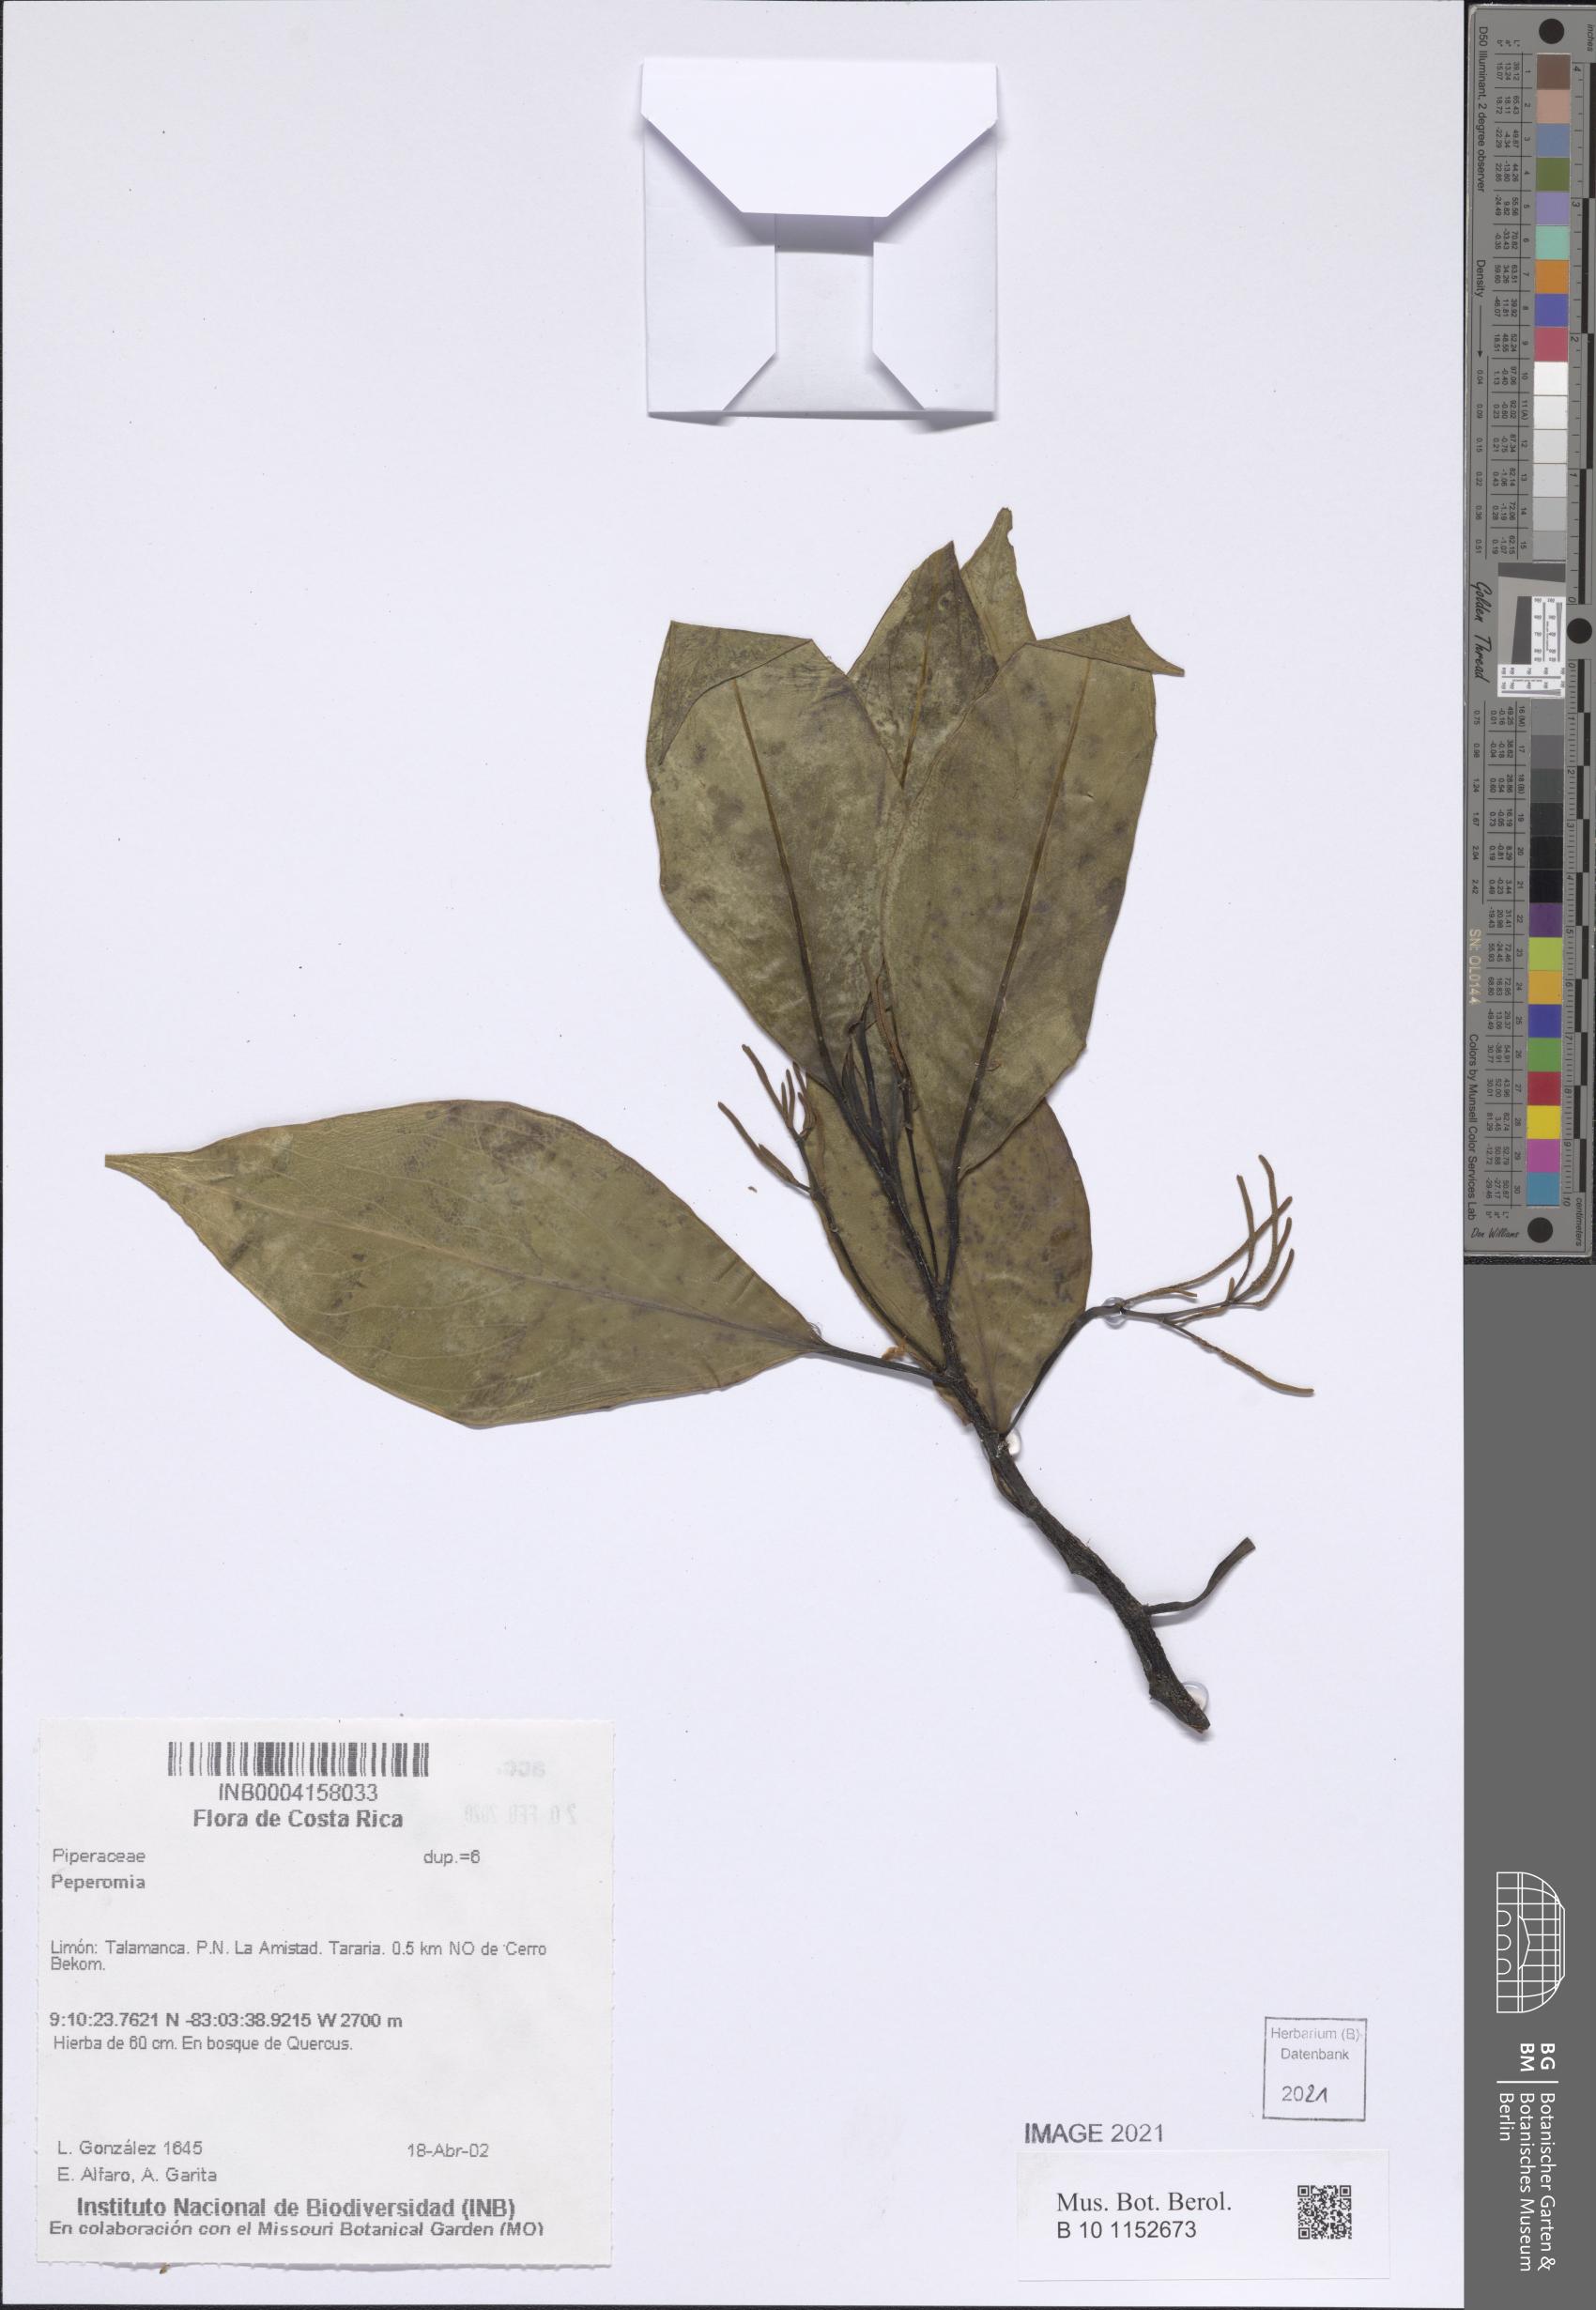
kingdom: Plantae
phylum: Tracheophyta
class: Magnoliopsida
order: Piperales
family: Piperaceae
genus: Peperomia
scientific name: Peperomia
